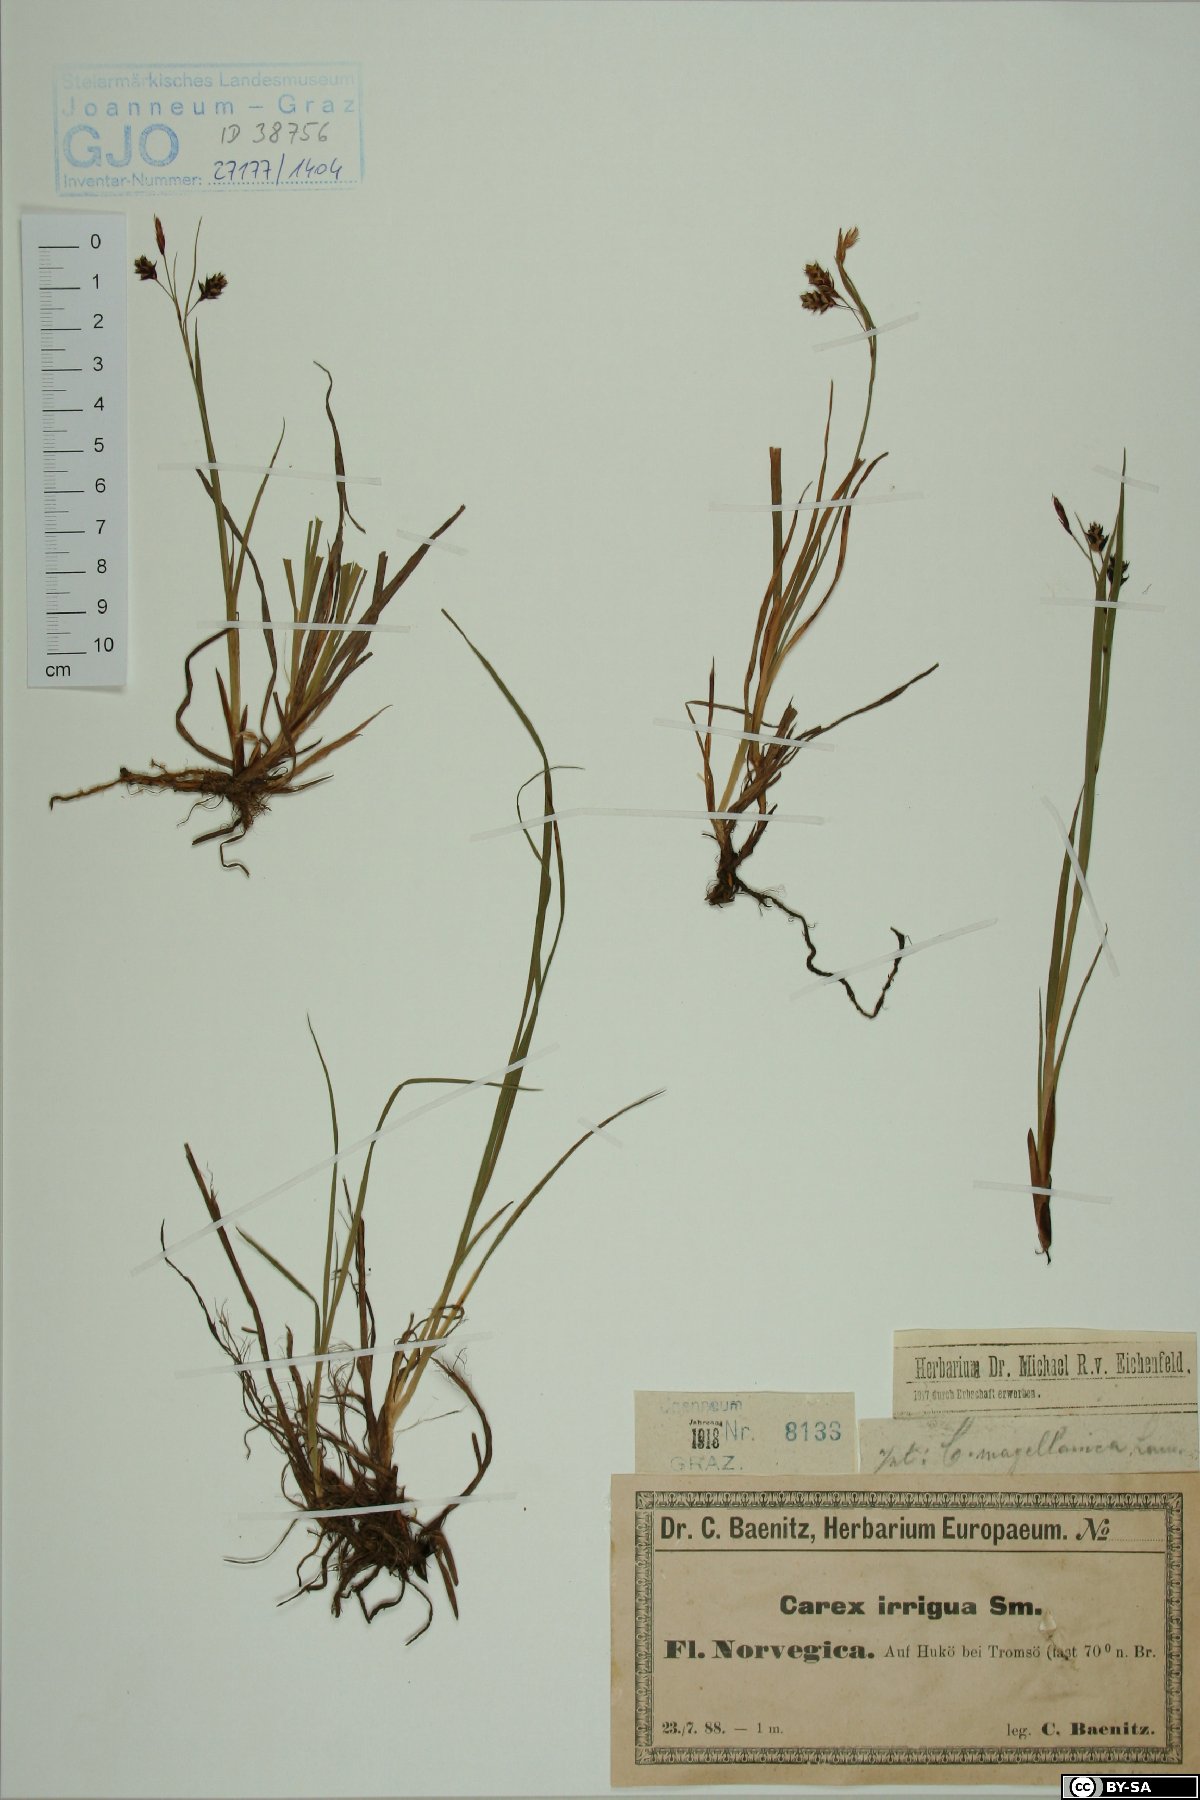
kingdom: Plantae
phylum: Tracheophyta
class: Liliopsida
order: Poales
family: Cyperaceae
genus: Carex
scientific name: Carex magellanica
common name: Bog sedge
